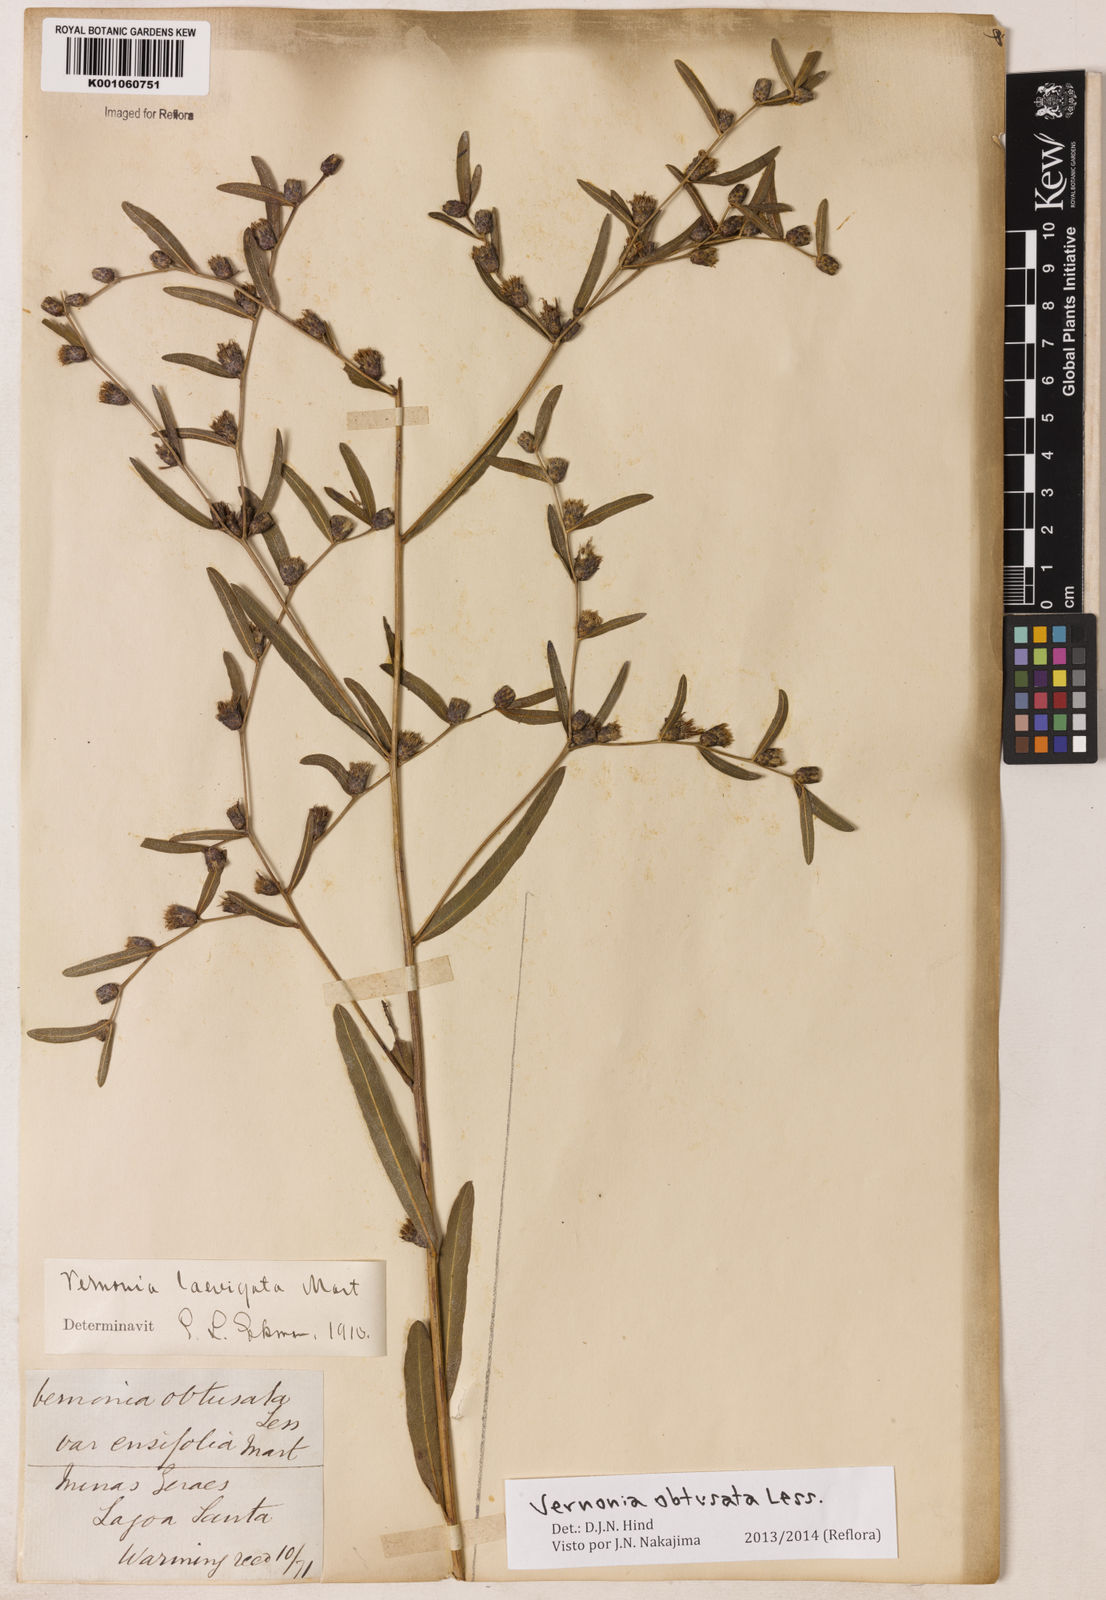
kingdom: Plantae
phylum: Tracheophyta
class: Magnoliopsida
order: Asterales
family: Asteraceae
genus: Lessingianthus
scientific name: Lessingianthus obtusatus
